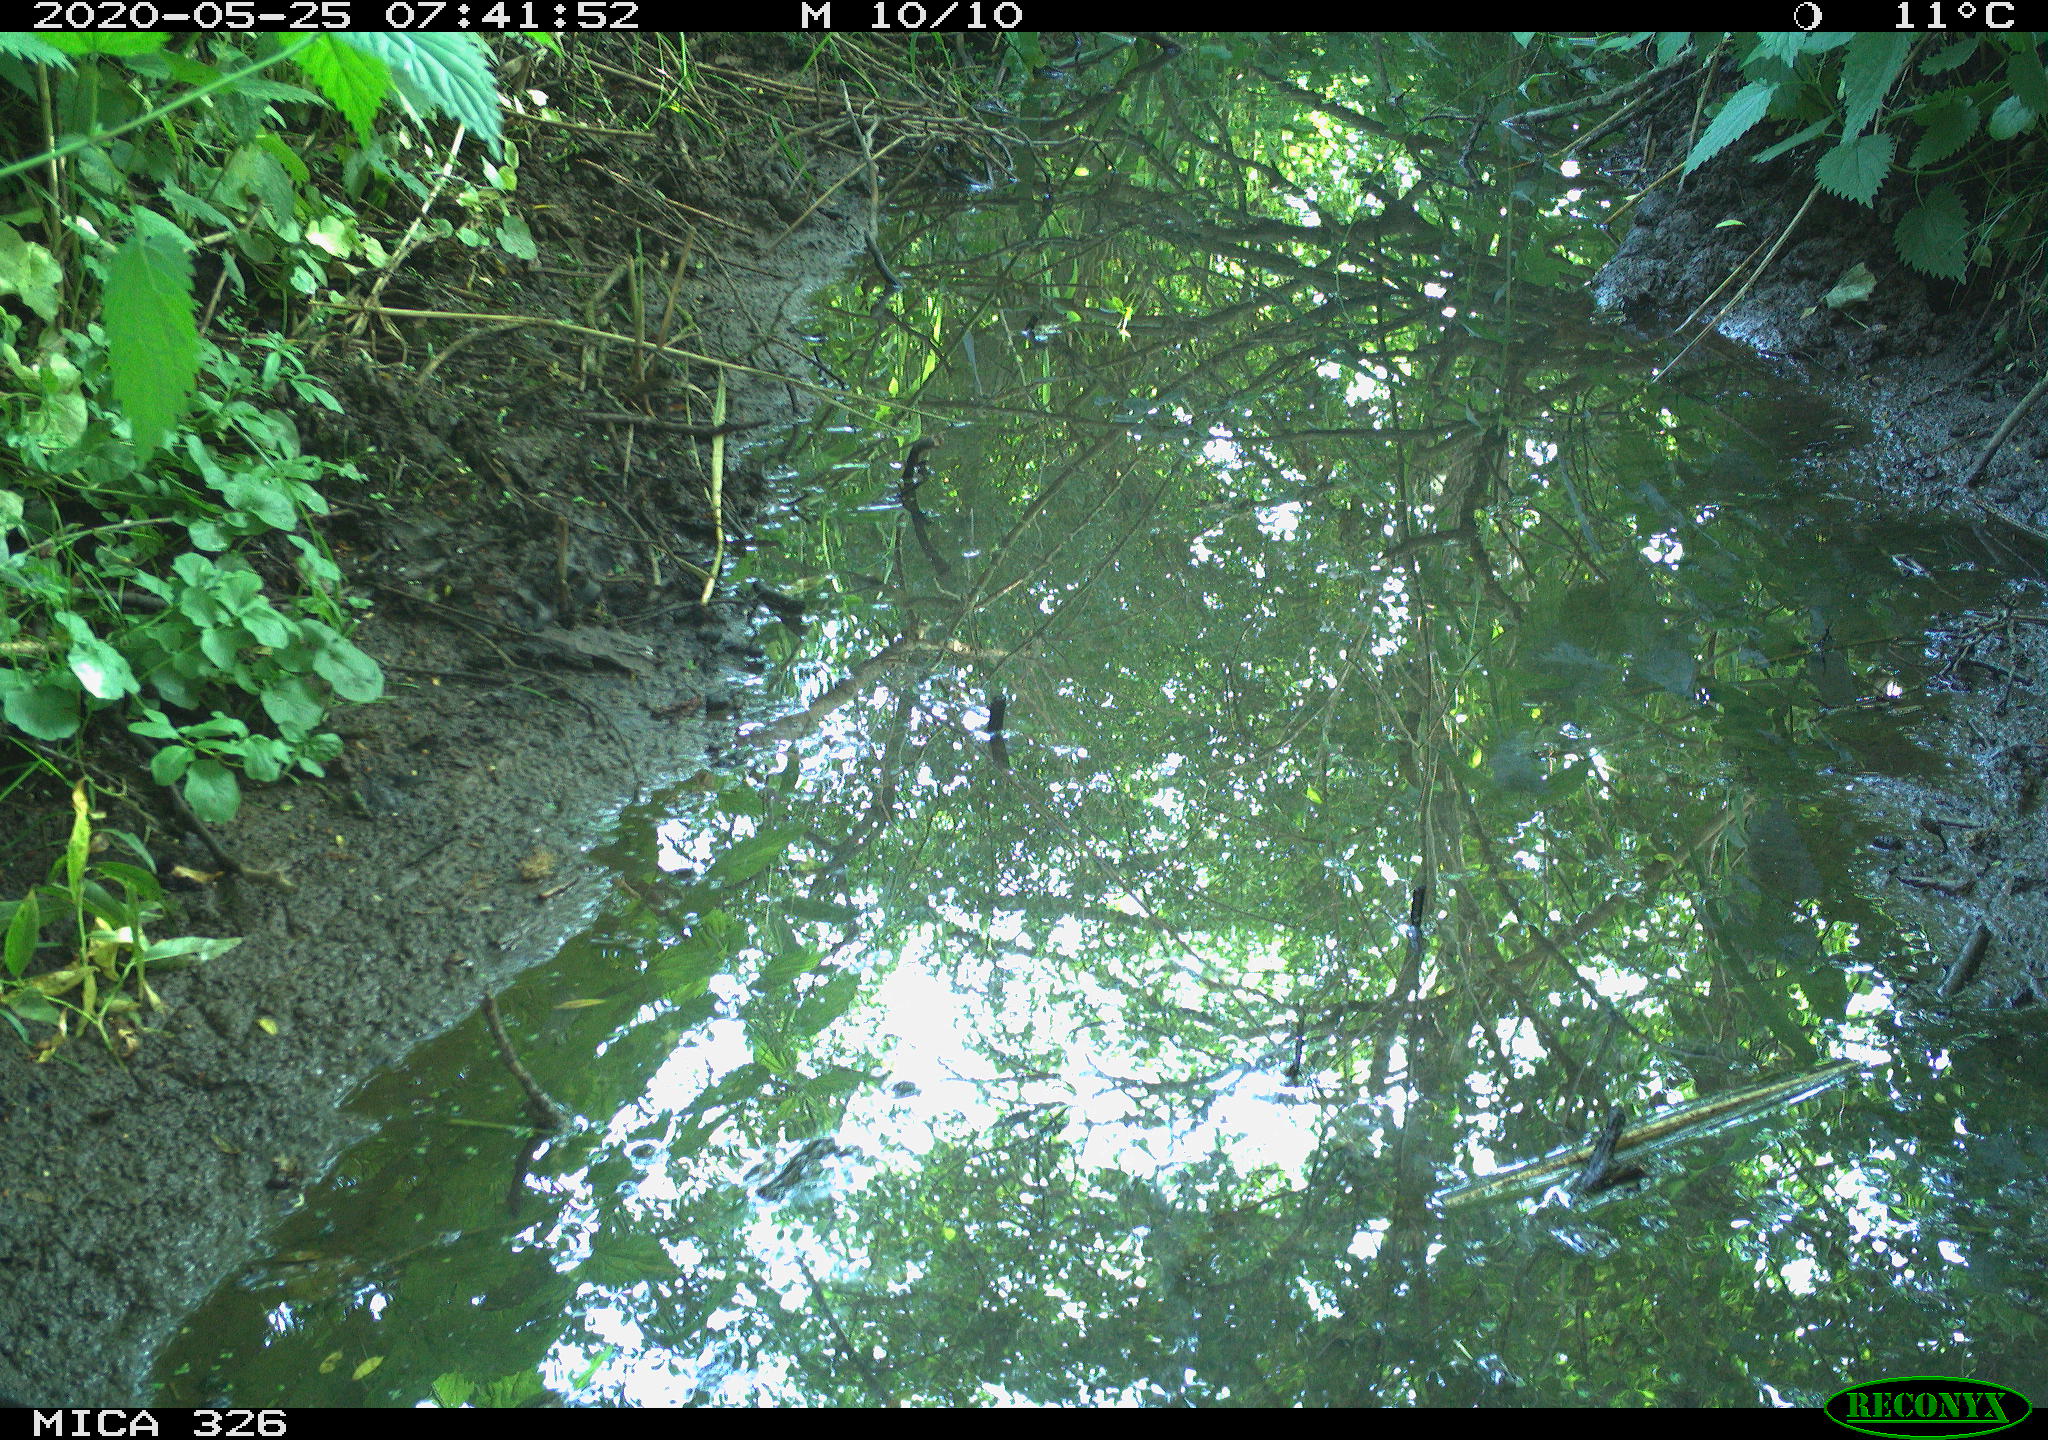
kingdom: Animalia
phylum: Chordata
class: Aves
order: Passeriformes
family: Turdidae
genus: Turdus
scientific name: Turdus philomelos
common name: Song thrush
